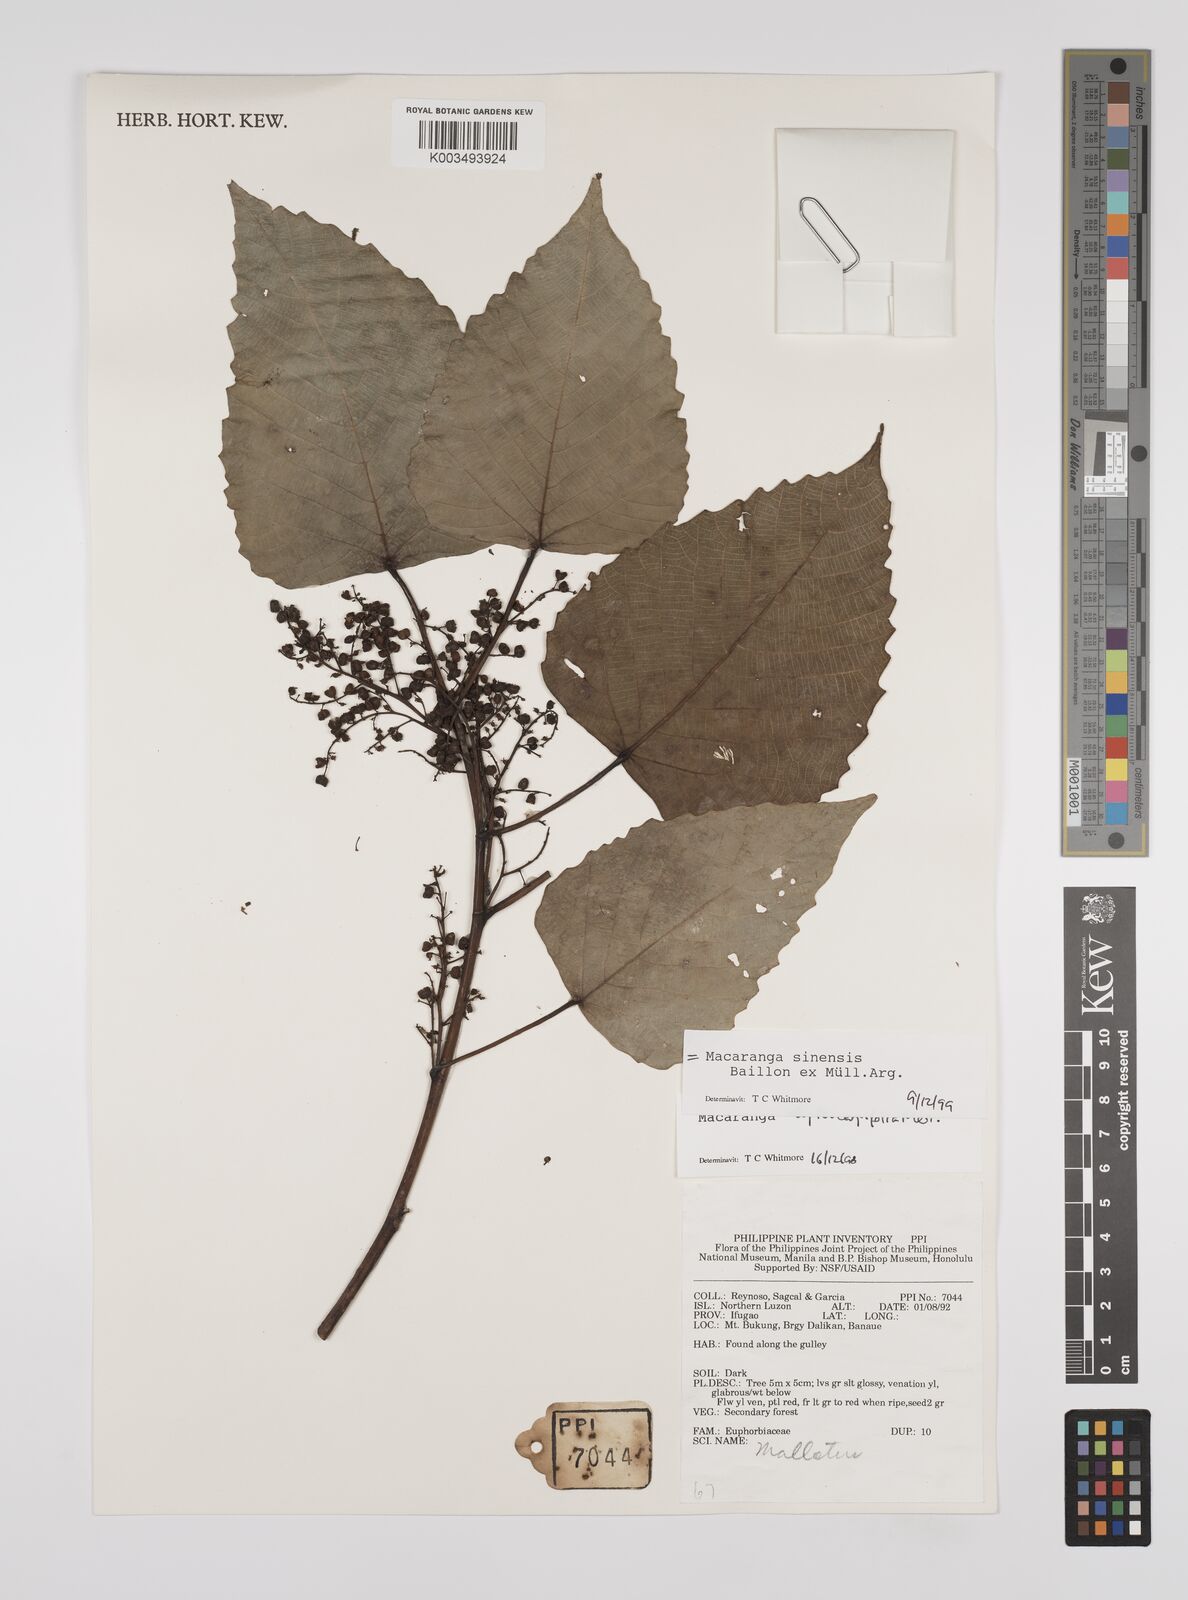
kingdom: Plantae
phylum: Tracheophyta
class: Magnoliopsida
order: Malpighiales
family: Euphorbiaceae
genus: Macaranga
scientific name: Macaranga sinensis
